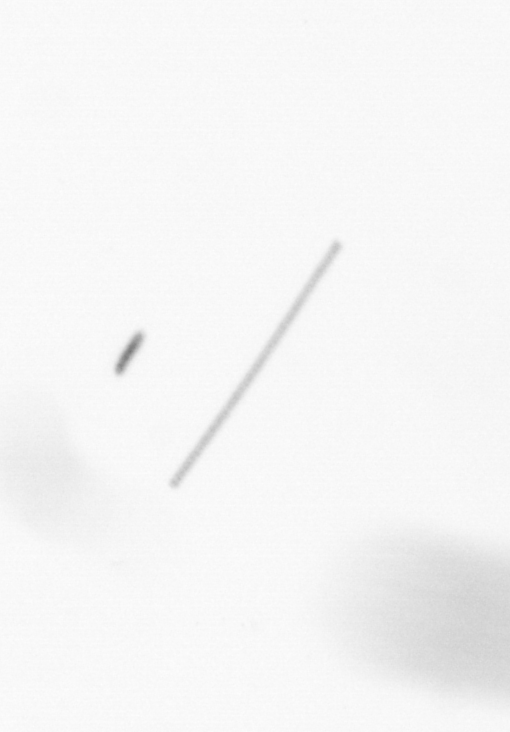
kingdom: Chromista
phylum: Ochrophyta
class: Bacillariophyceae
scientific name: Bacillariophyceae
